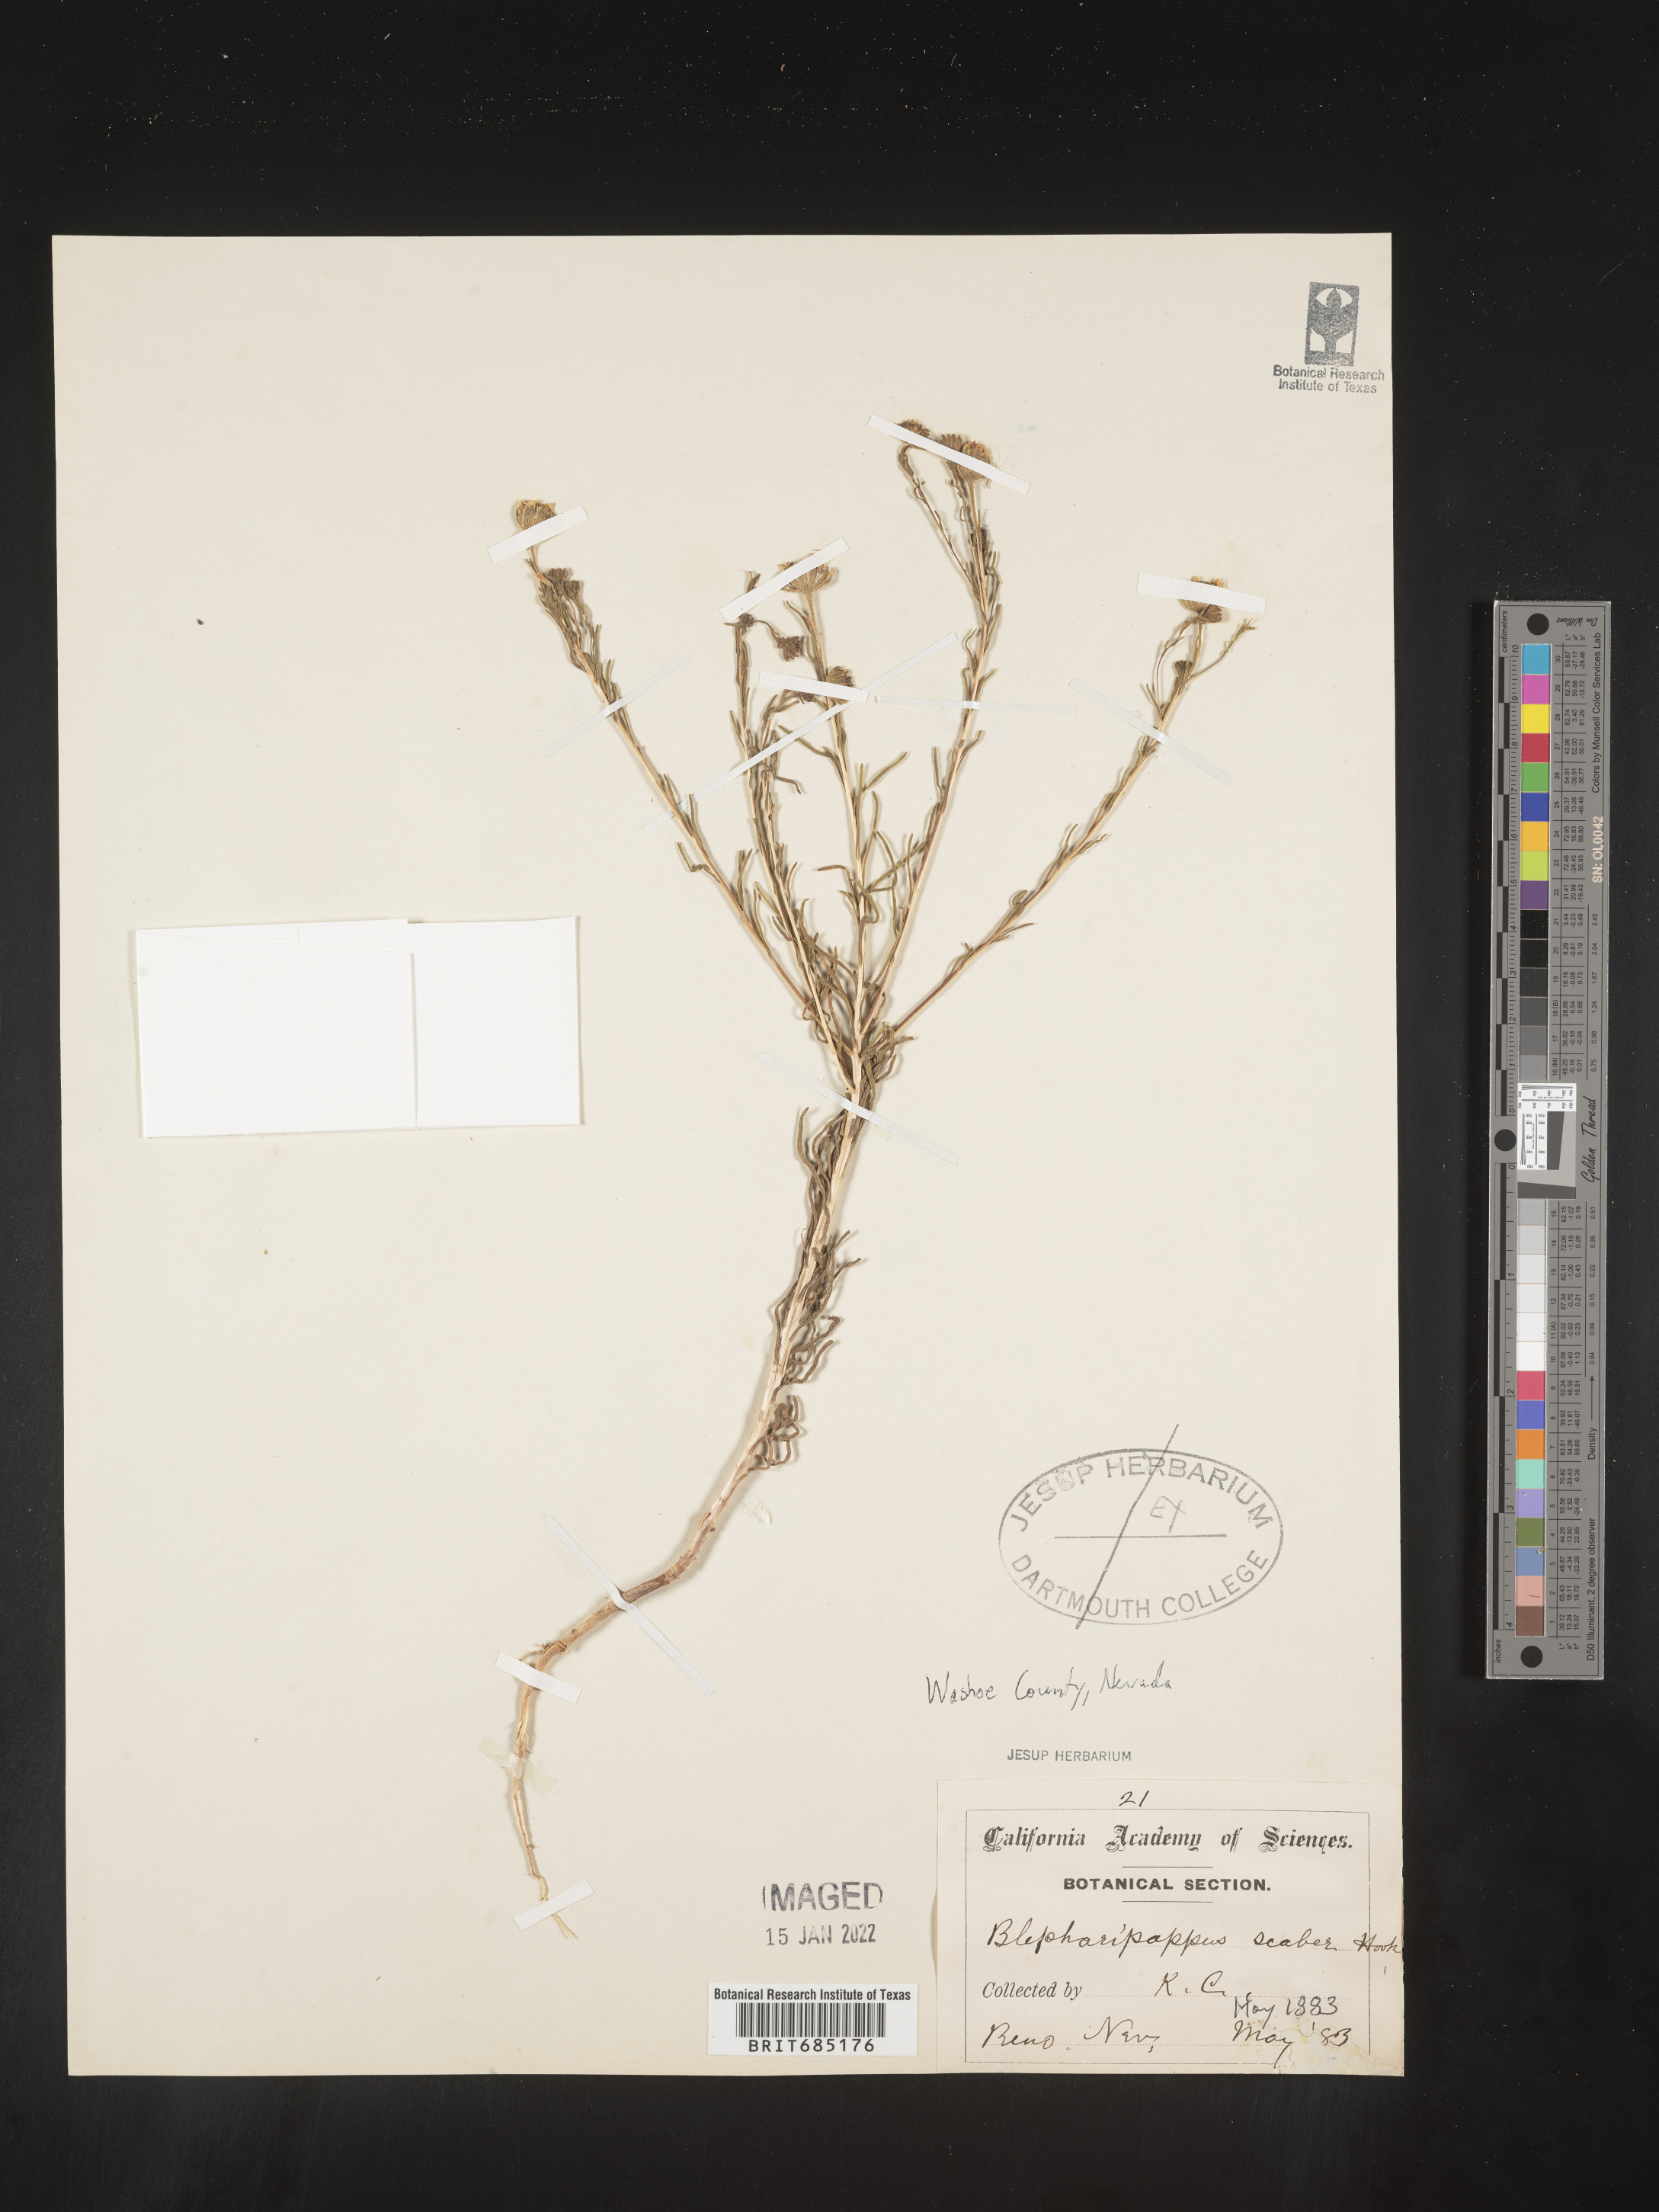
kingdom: Plantae
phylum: Tracheophyta
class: Magnoliopsida
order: Asterales
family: Asteraceae
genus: Blepharipappus
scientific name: Blepharipappus
